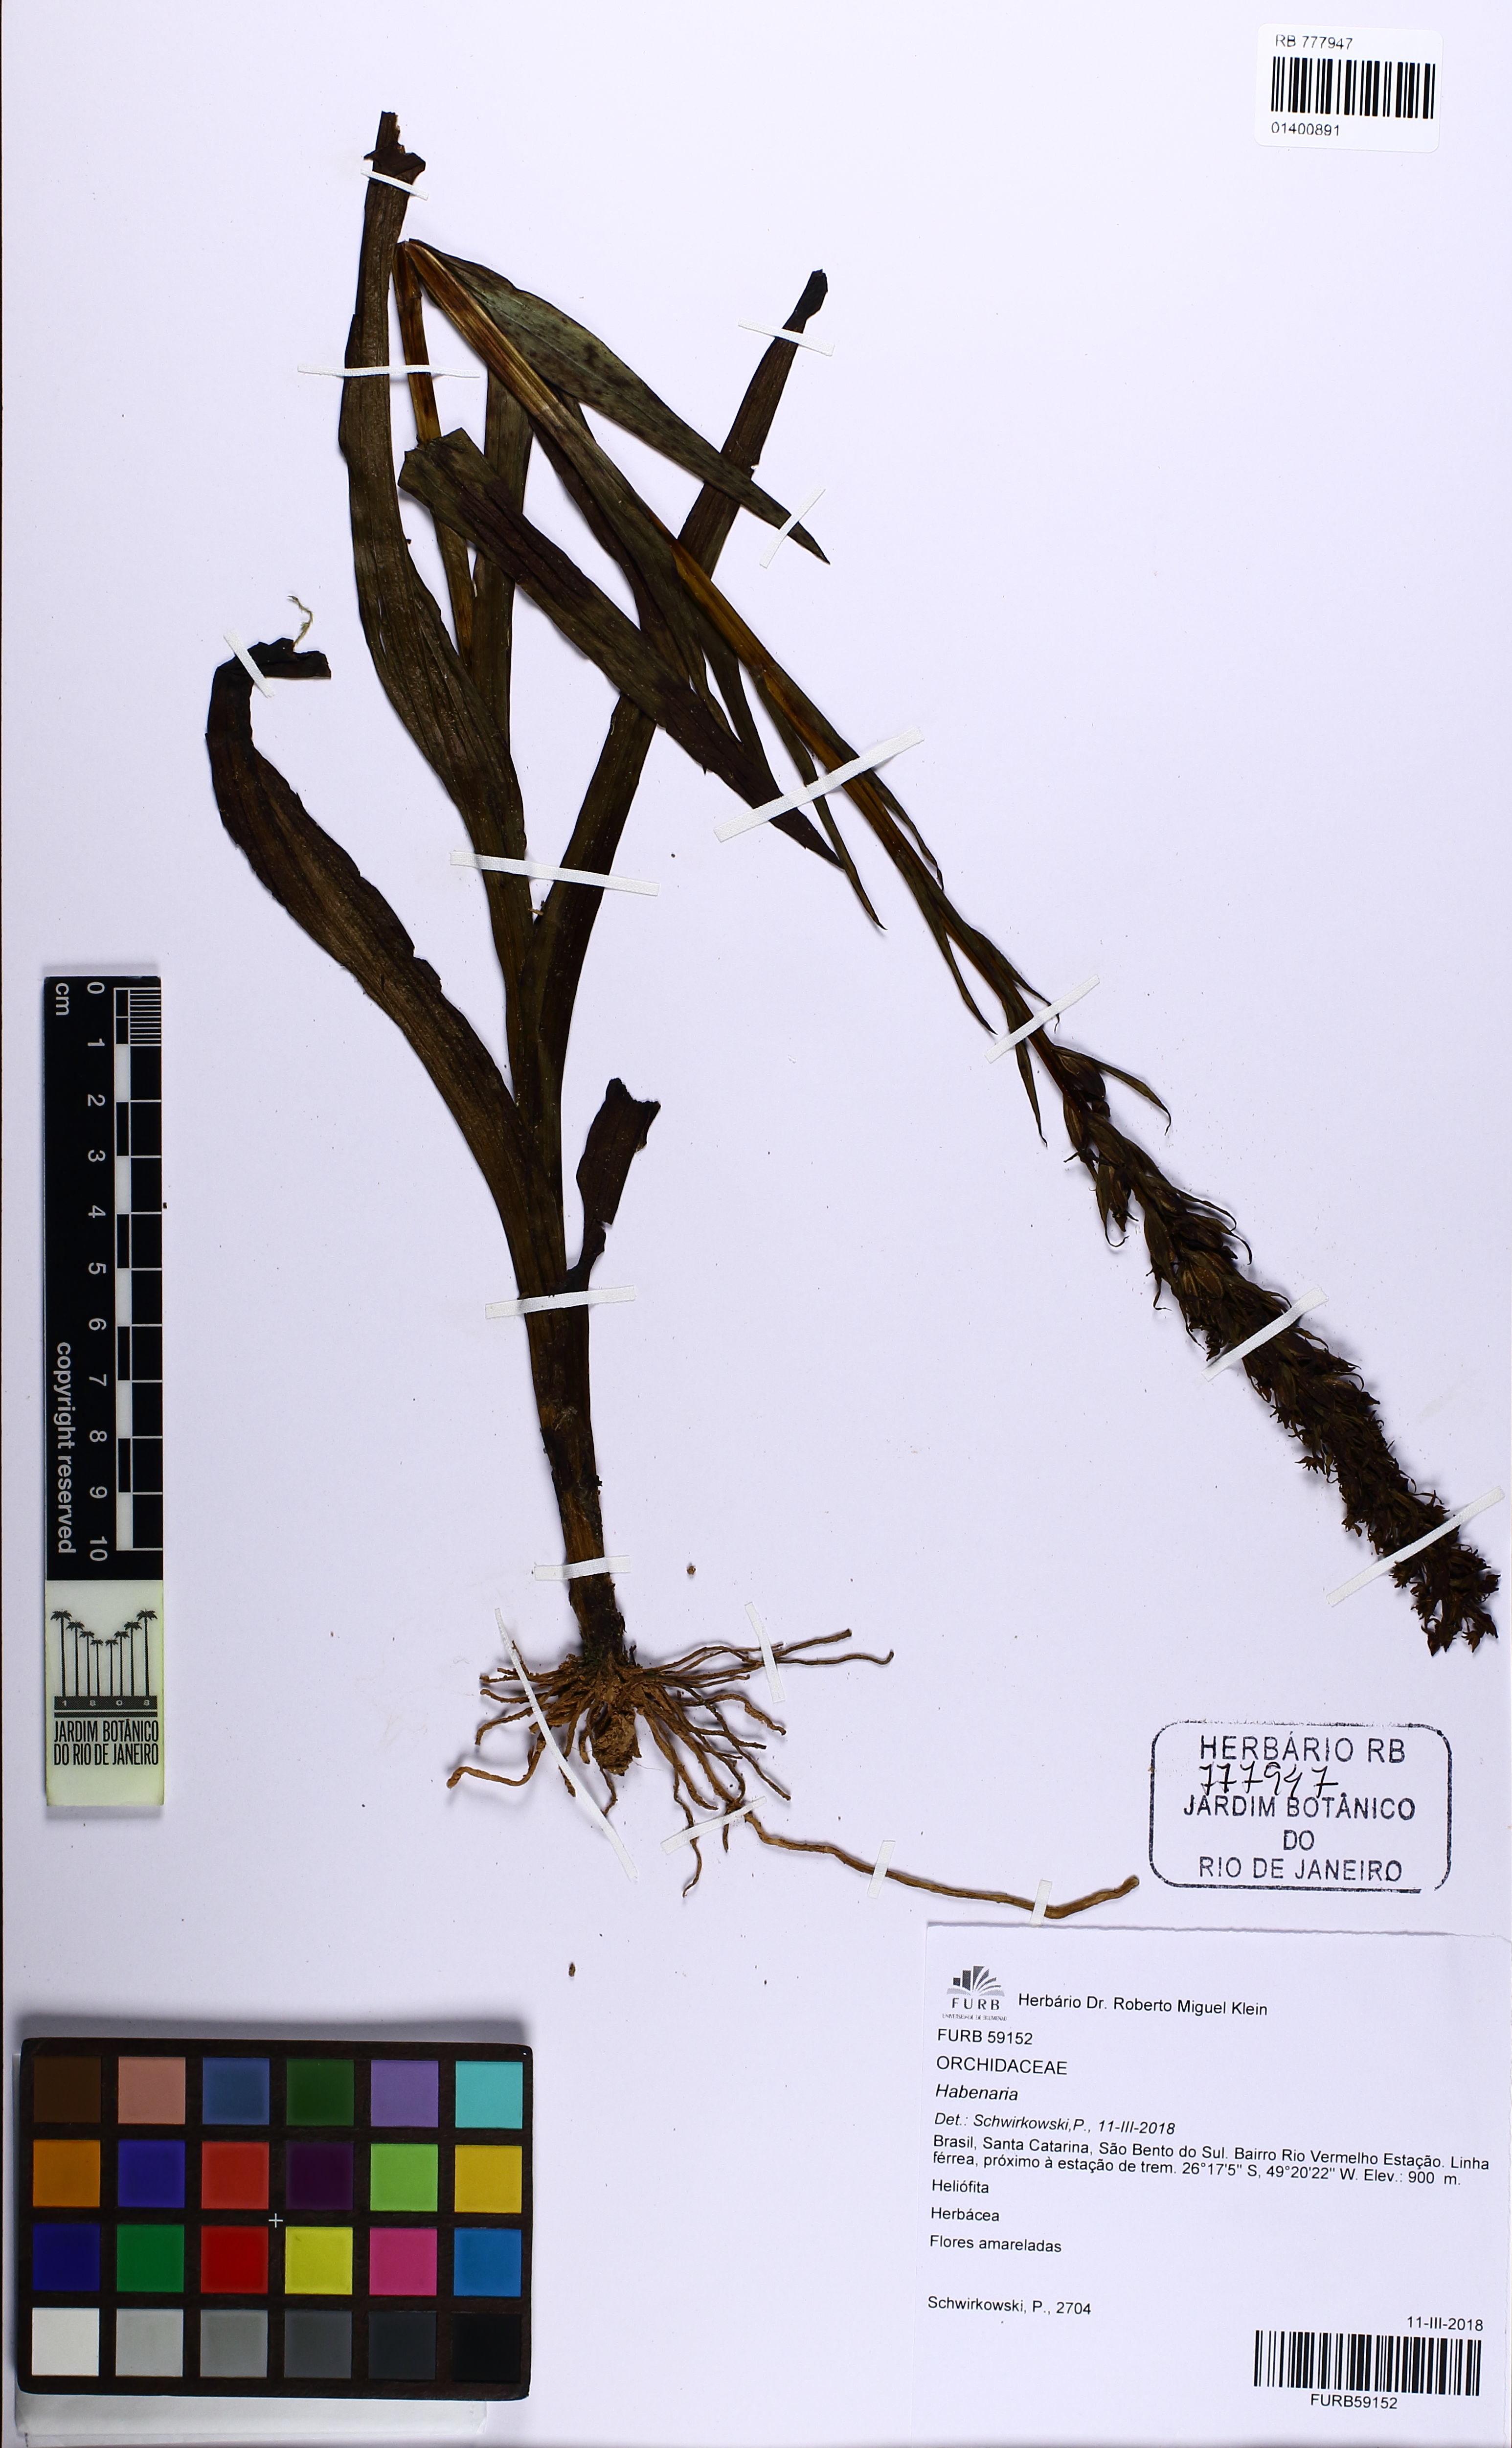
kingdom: Plantae
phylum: Tracheophyta
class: Liliopsida
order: Asparagales
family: Orchidaceae
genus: Habenaria
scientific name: Habenaria
